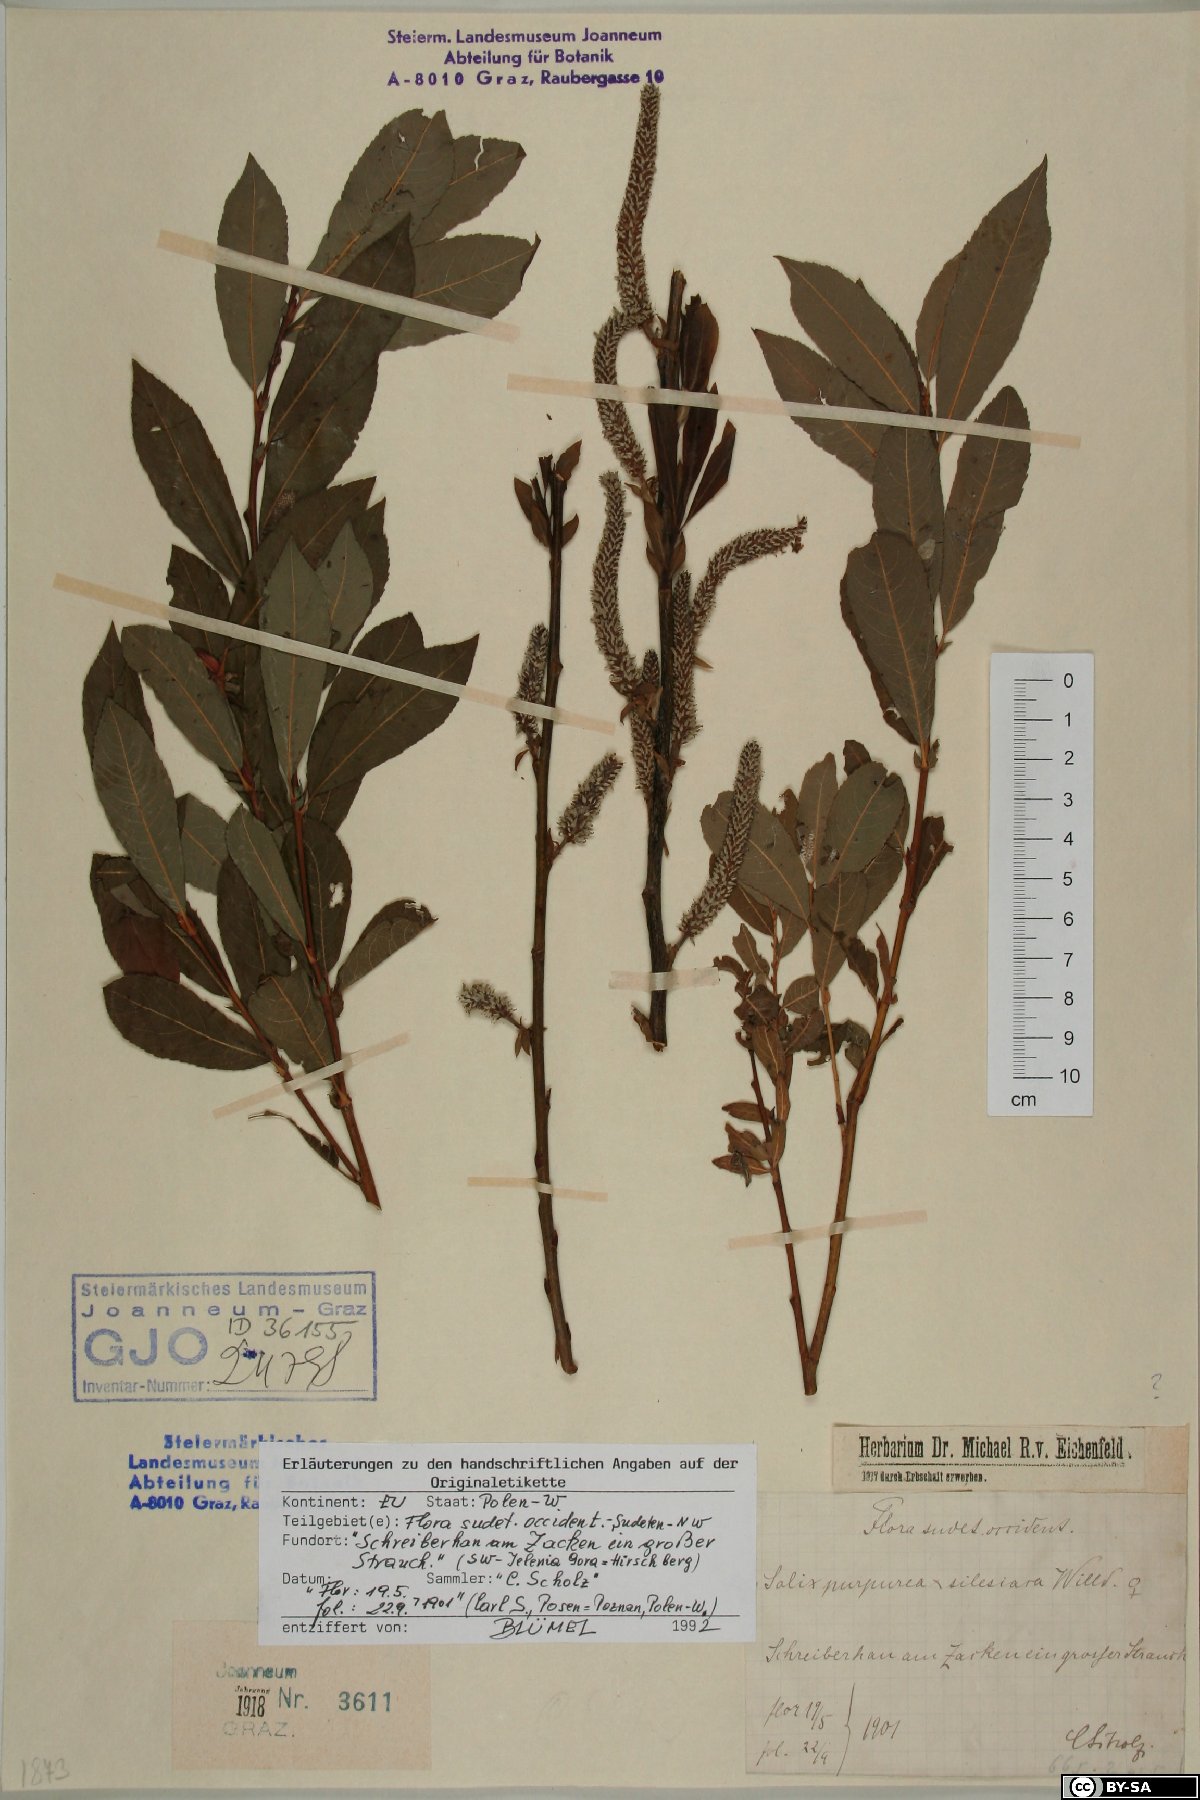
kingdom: Plantae
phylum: Tracheophyta
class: Magnoliopsida
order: Malpighiales
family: Salicaceae
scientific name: Salicaceae
